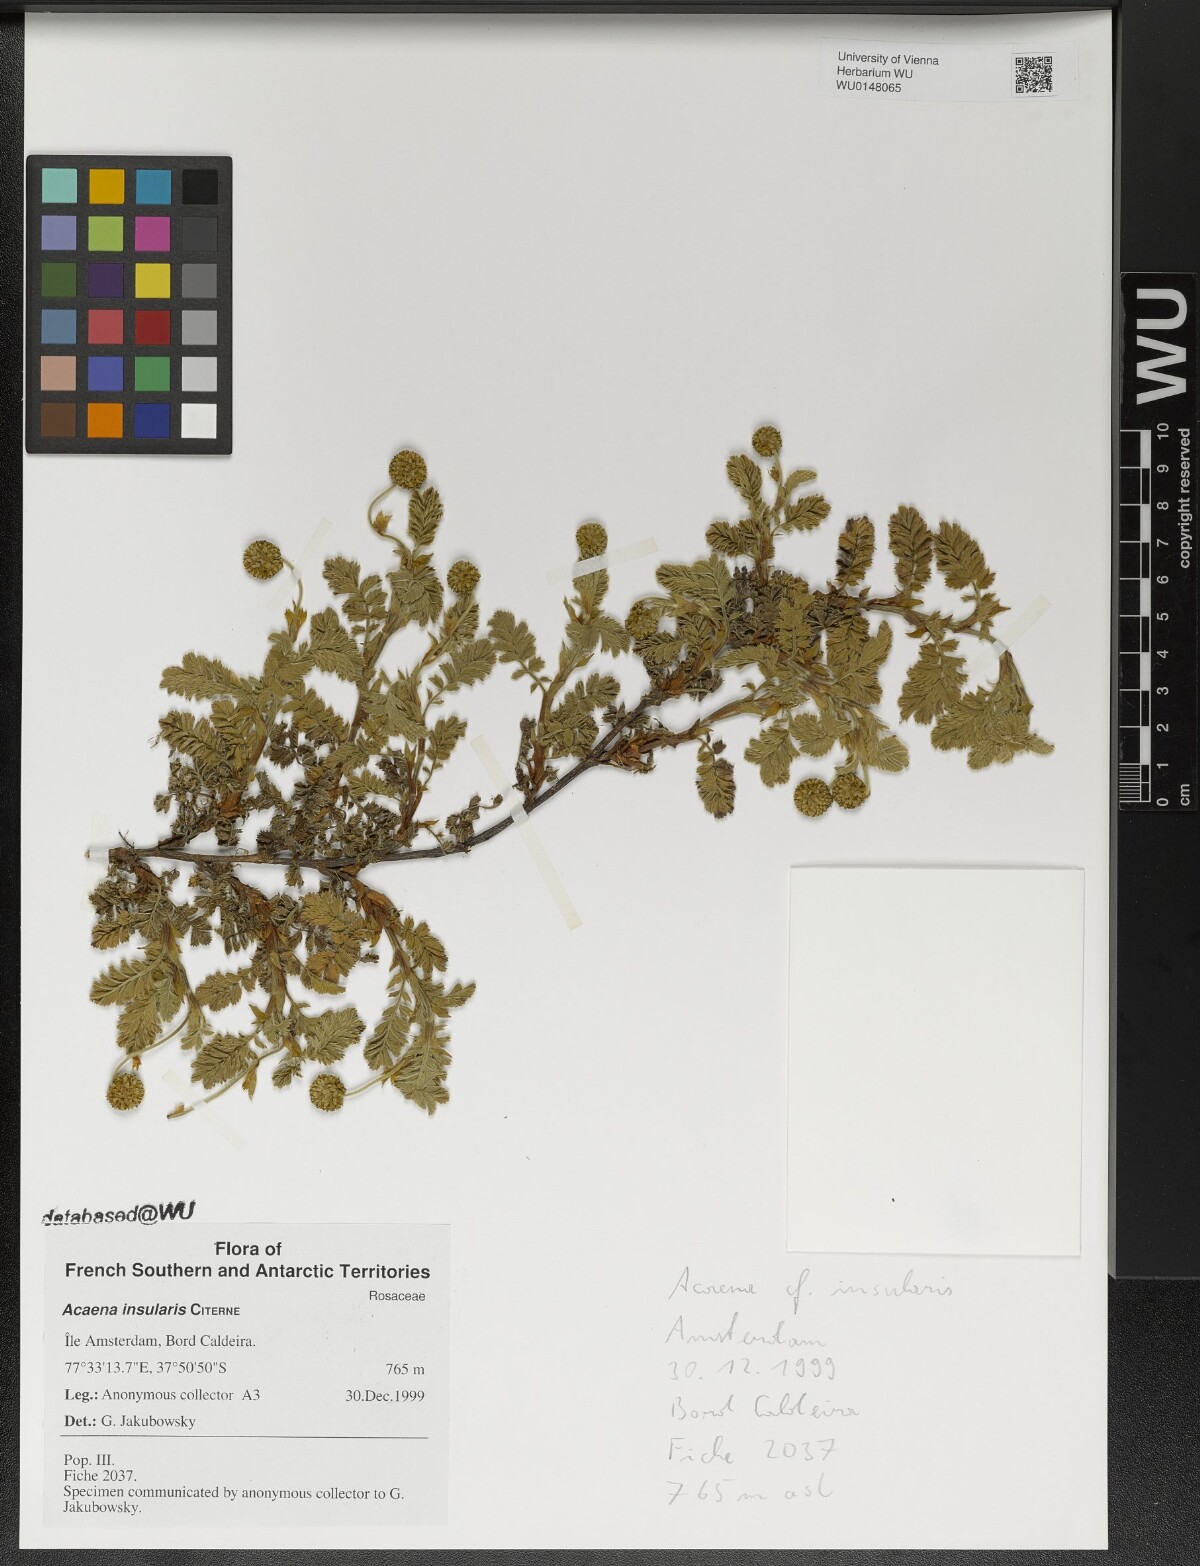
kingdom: Plantae
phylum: Tracheophyta
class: Magnoliopsida
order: Rosales
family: Rosaceae
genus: Acaena
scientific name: Acaena insularis
